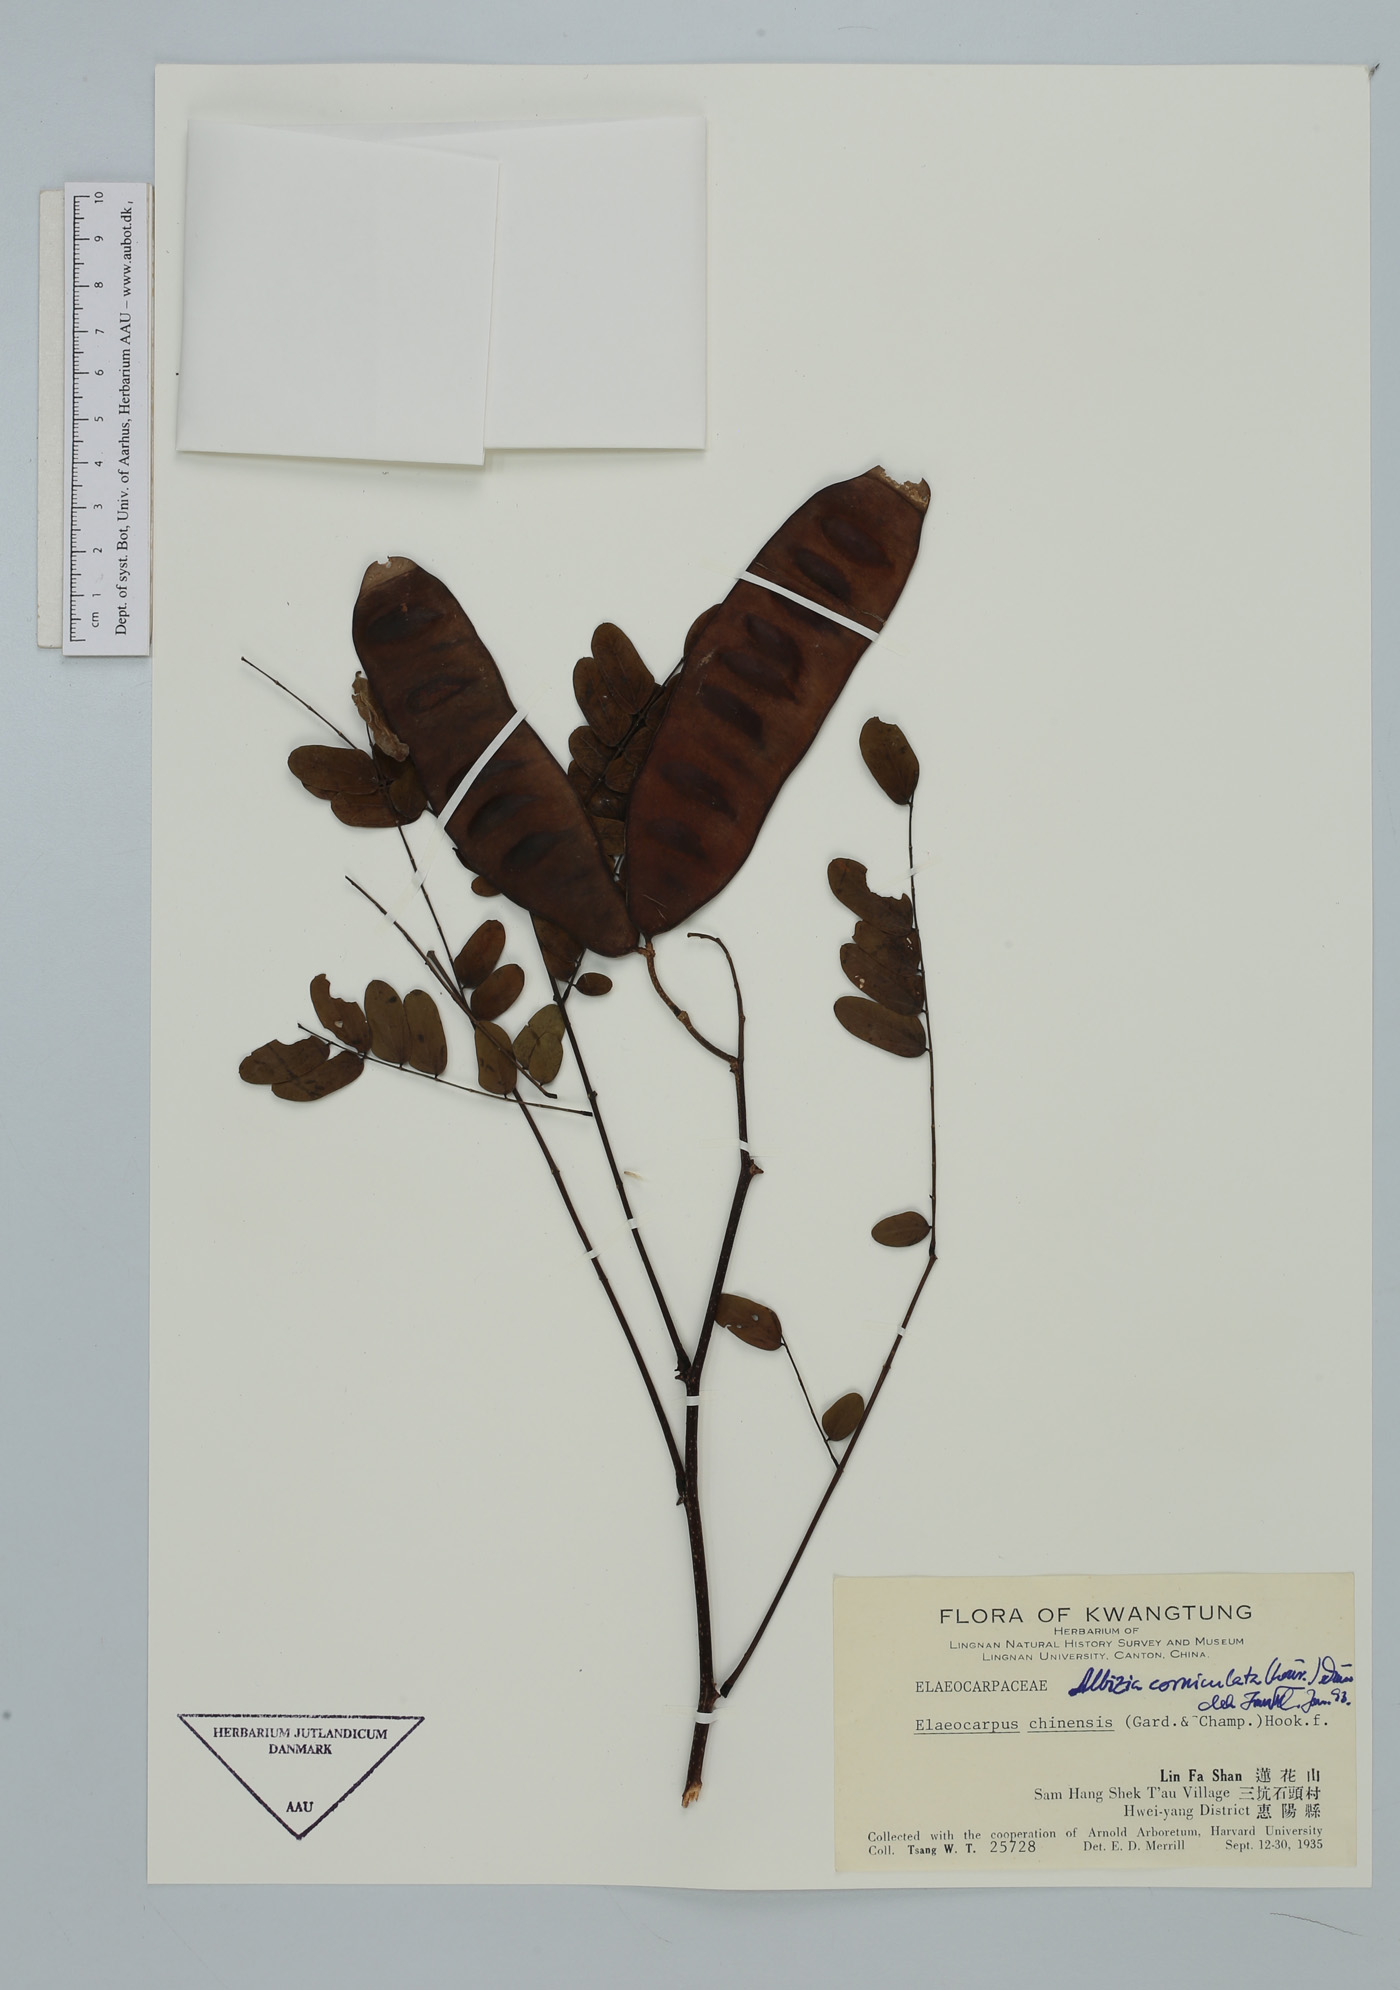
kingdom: Plantae
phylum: Tracheophyta
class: Magnoliopsida
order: Fabales
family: Fabaceae
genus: Albizia
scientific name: Albizia corniculata
